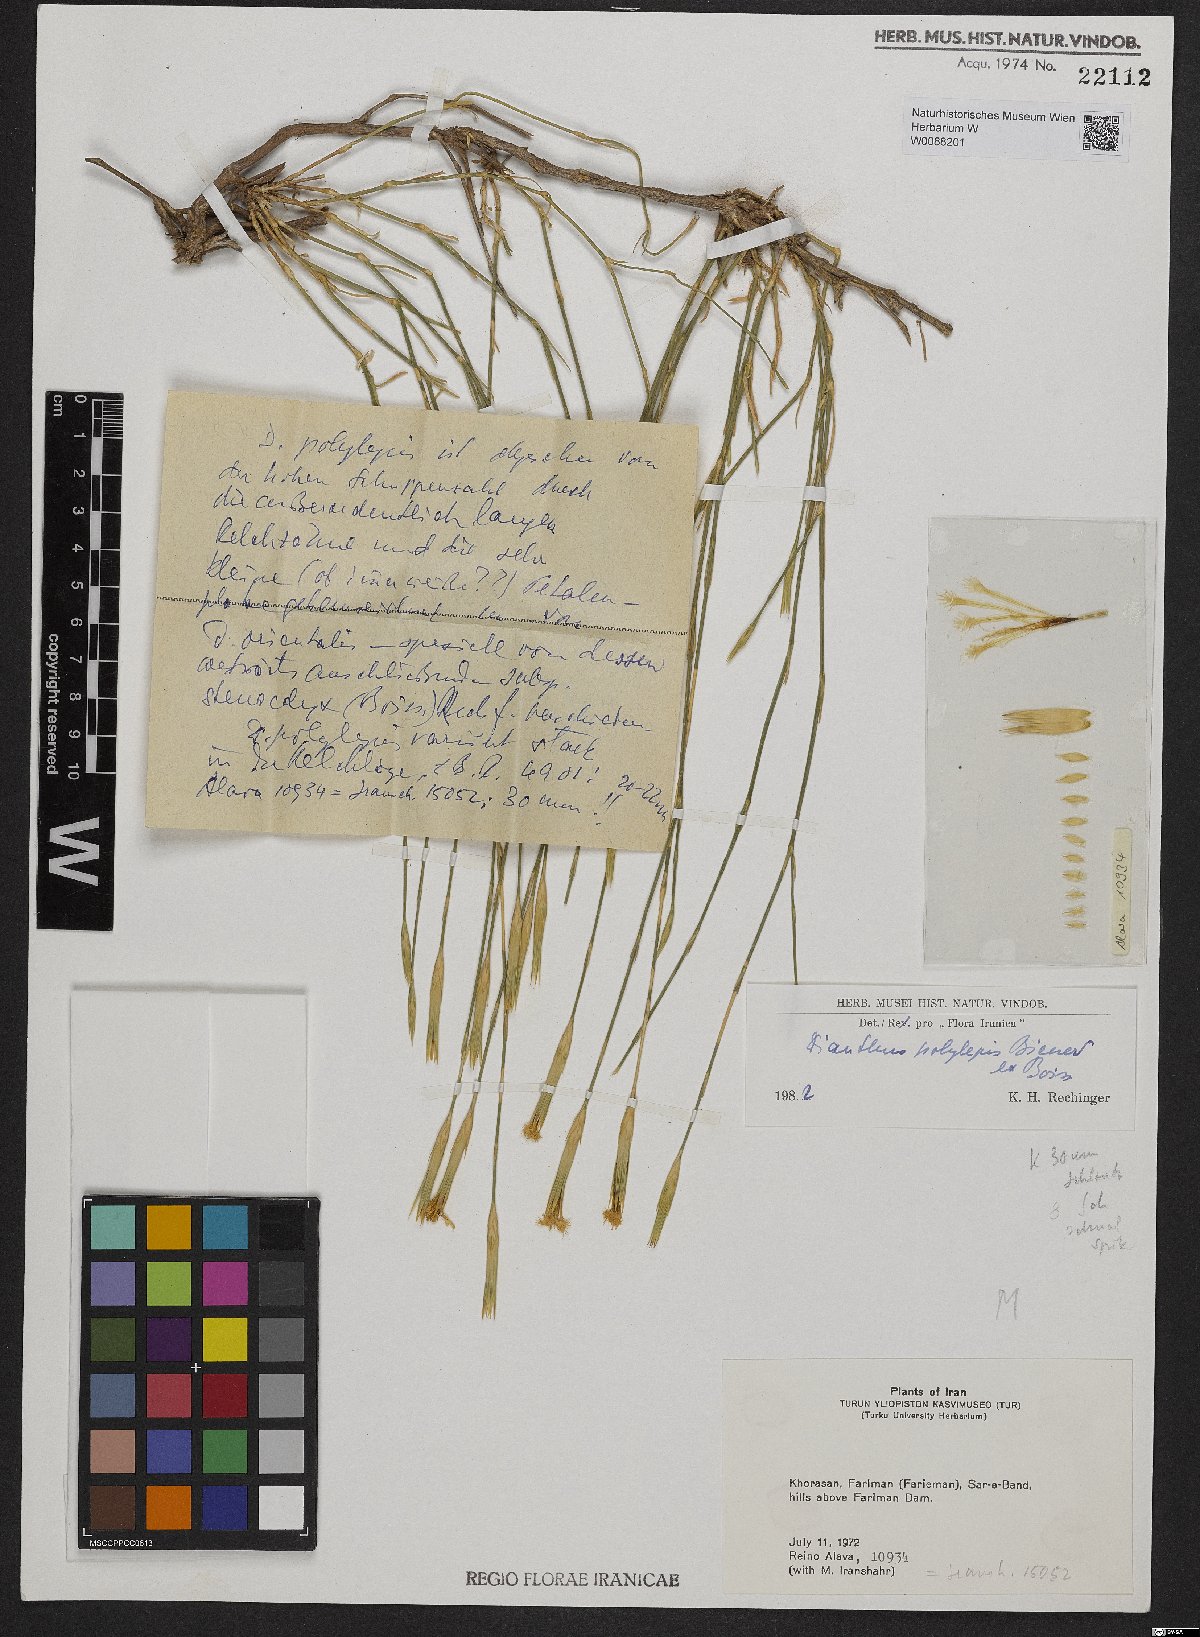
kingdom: Plantae
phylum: Tracheophyta
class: Magnoliopsida
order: Caryophyllales
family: Caryophyllaceae
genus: Dianthus
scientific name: Dianthus polylepis
